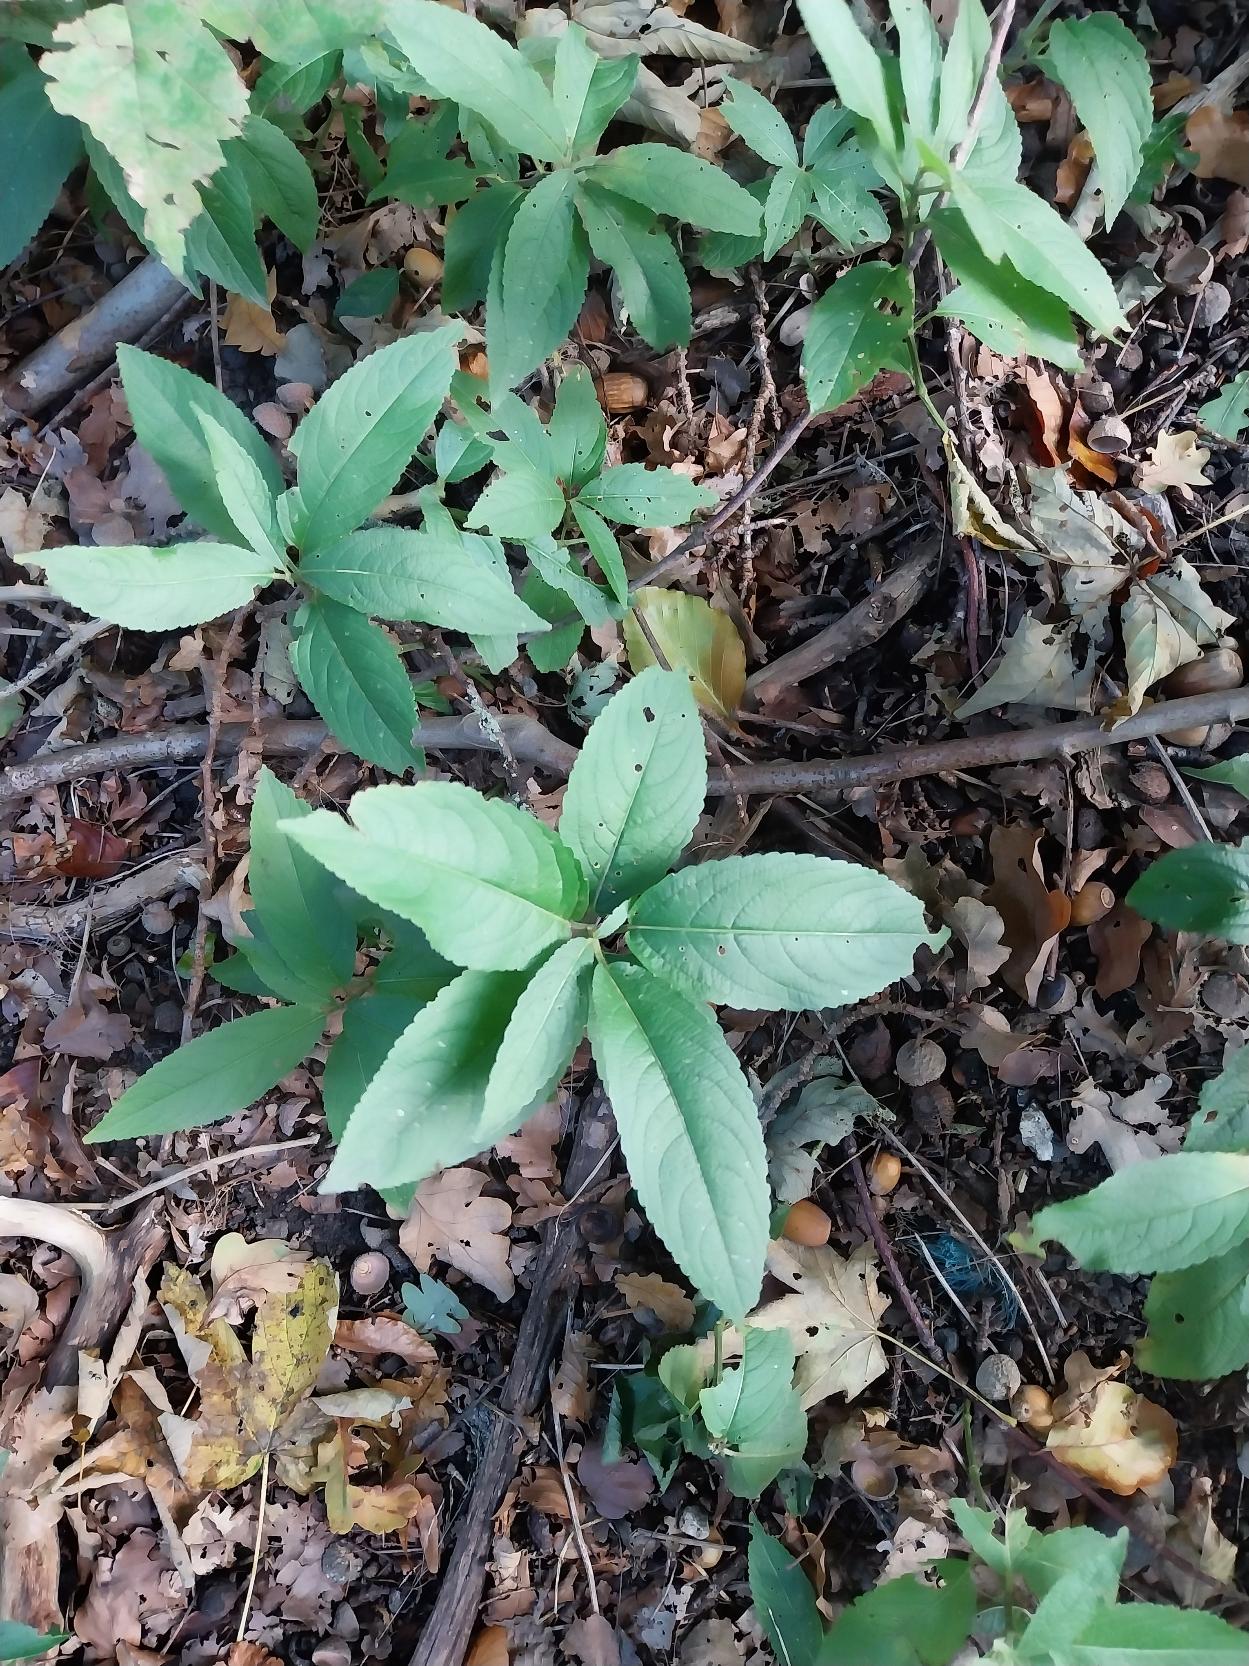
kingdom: Plantae
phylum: Tracheophyta
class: Magnoliopsida
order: Malpighiales
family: Euphorbiaceae
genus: Mercurialis
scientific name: Mercurialis perennis
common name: Almindelig bingelurt
